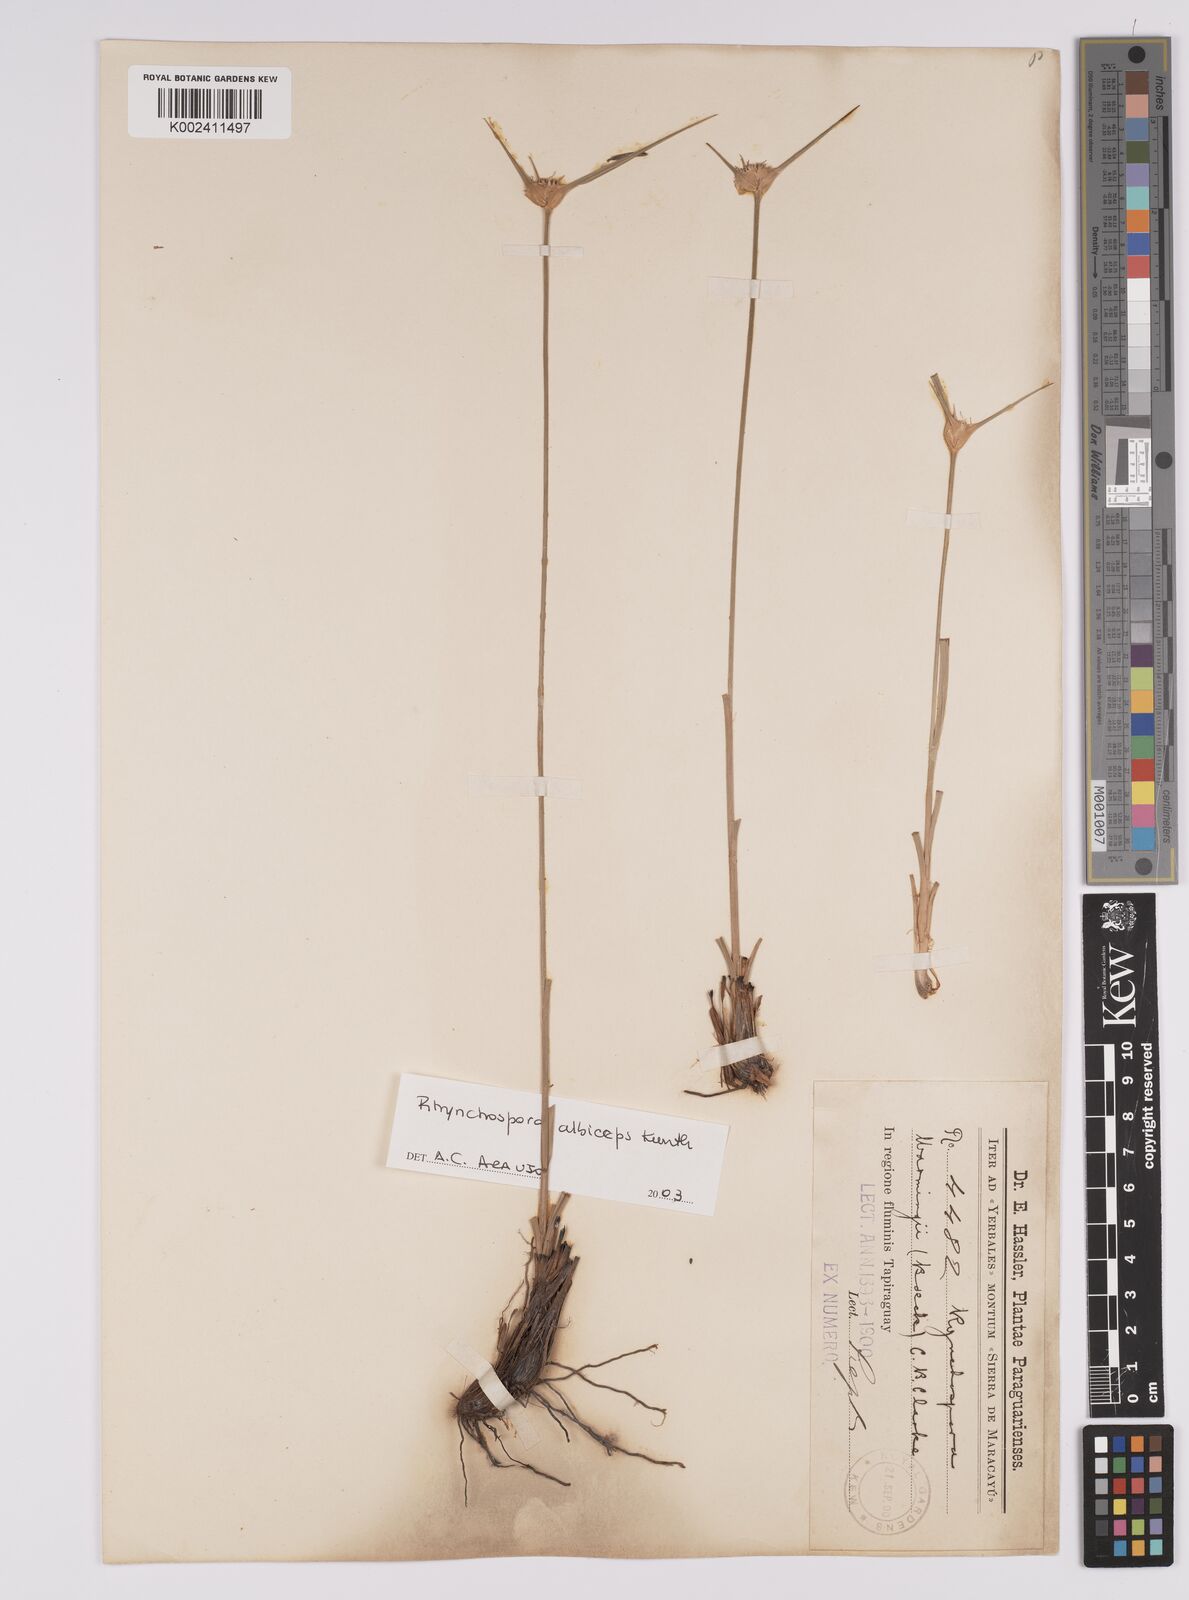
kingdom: Plantae
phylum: Tracheophyta
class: Liliopsida
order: Poales
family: Cyperaceae
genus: Rhynchospora
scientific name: Rhynchospora albiceps
